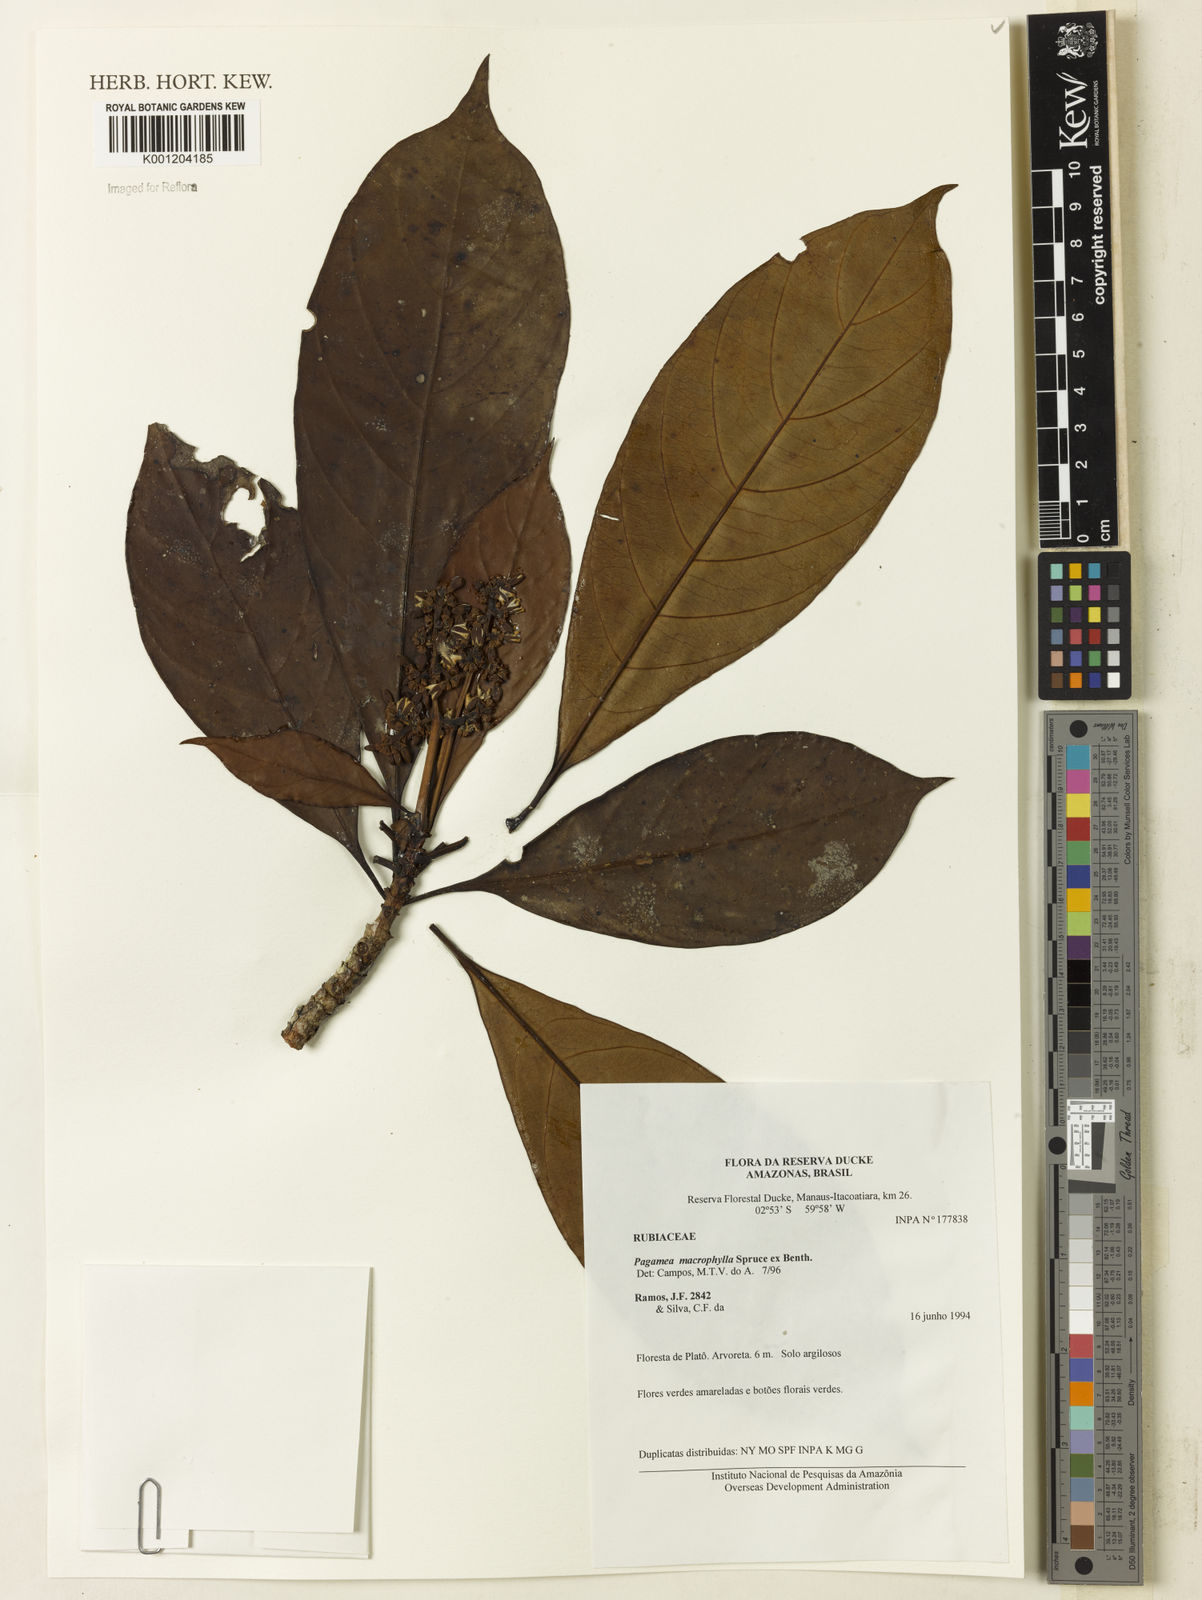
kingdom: Plantae
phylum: Tracheophyta
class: Magnoliopsida
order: Gentianales
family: Rubiaceae
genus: Pagamea
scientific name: Pagamea macrophylla
